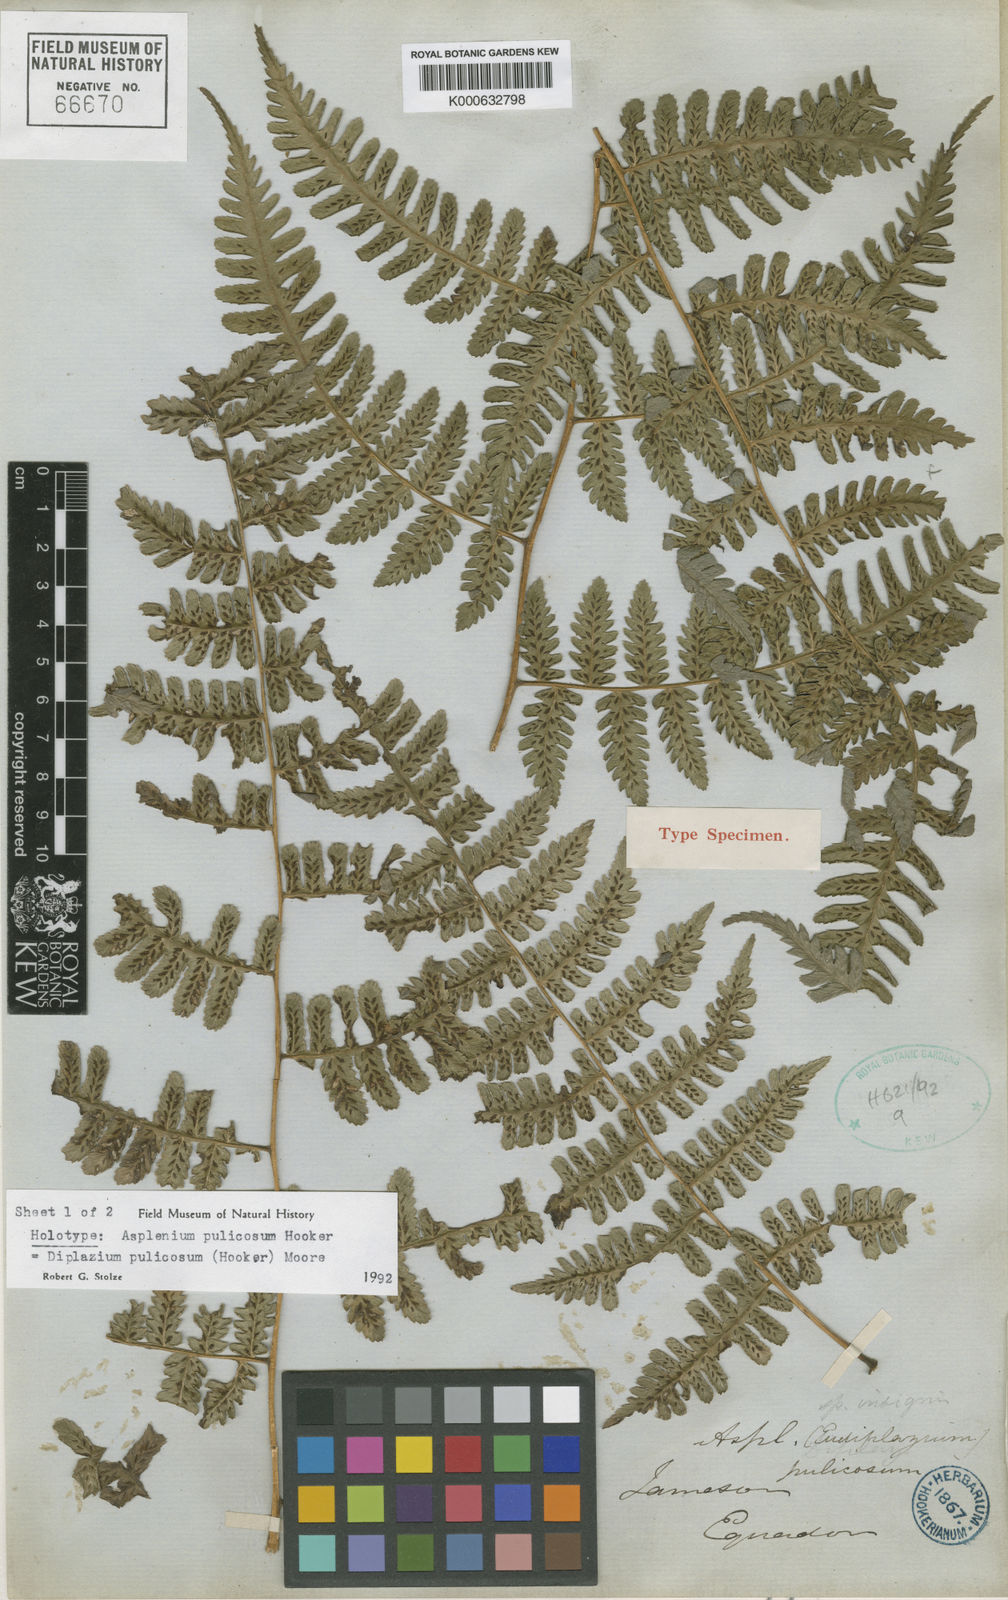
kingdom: Plantae
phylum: Tracheophyta
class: Polypodiopsida
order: Polypodiales
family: Athyriaceae
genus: Diplazium
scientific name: Diplazium pulicosum
